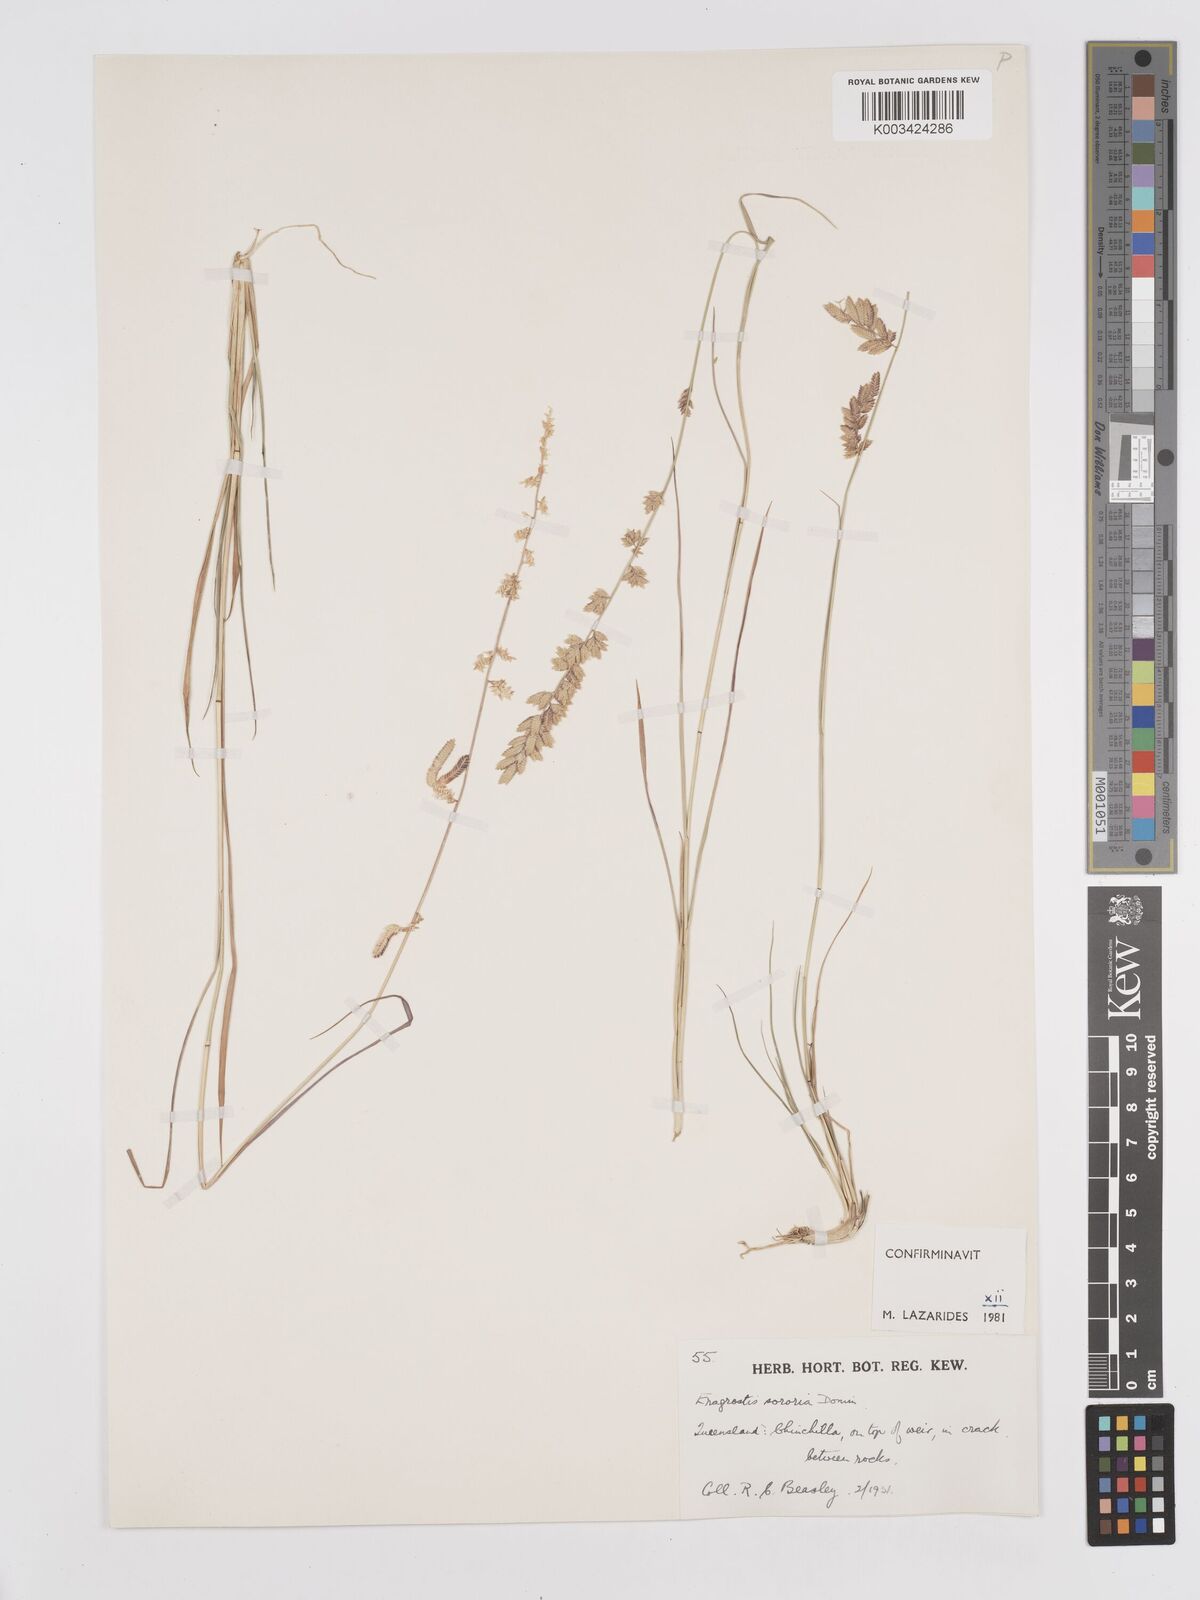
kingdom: Plantae
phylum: Tracheophyta
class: Liliopsida
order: Poales
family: Poaceae
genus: Eragrostis
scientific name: Eragrostis sororia
